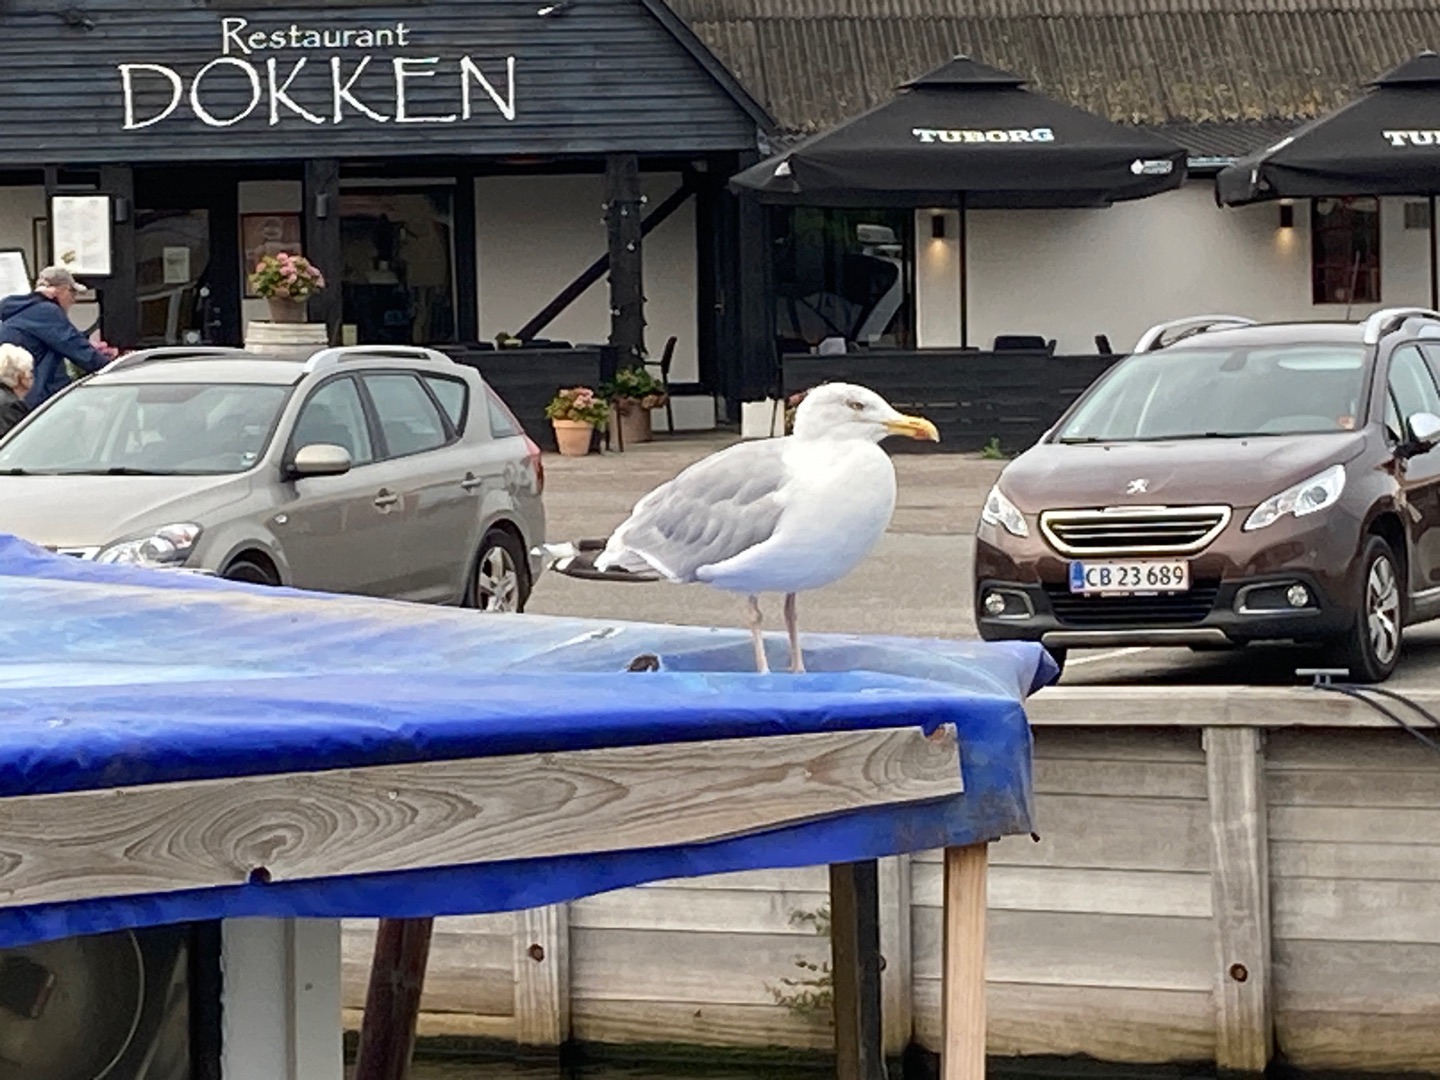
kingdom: Animalia
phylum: Chordata
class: Aves
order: Charadriiformes
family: Laridae
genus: Larus
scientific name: Larus argentatus
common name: Sølvmåge
